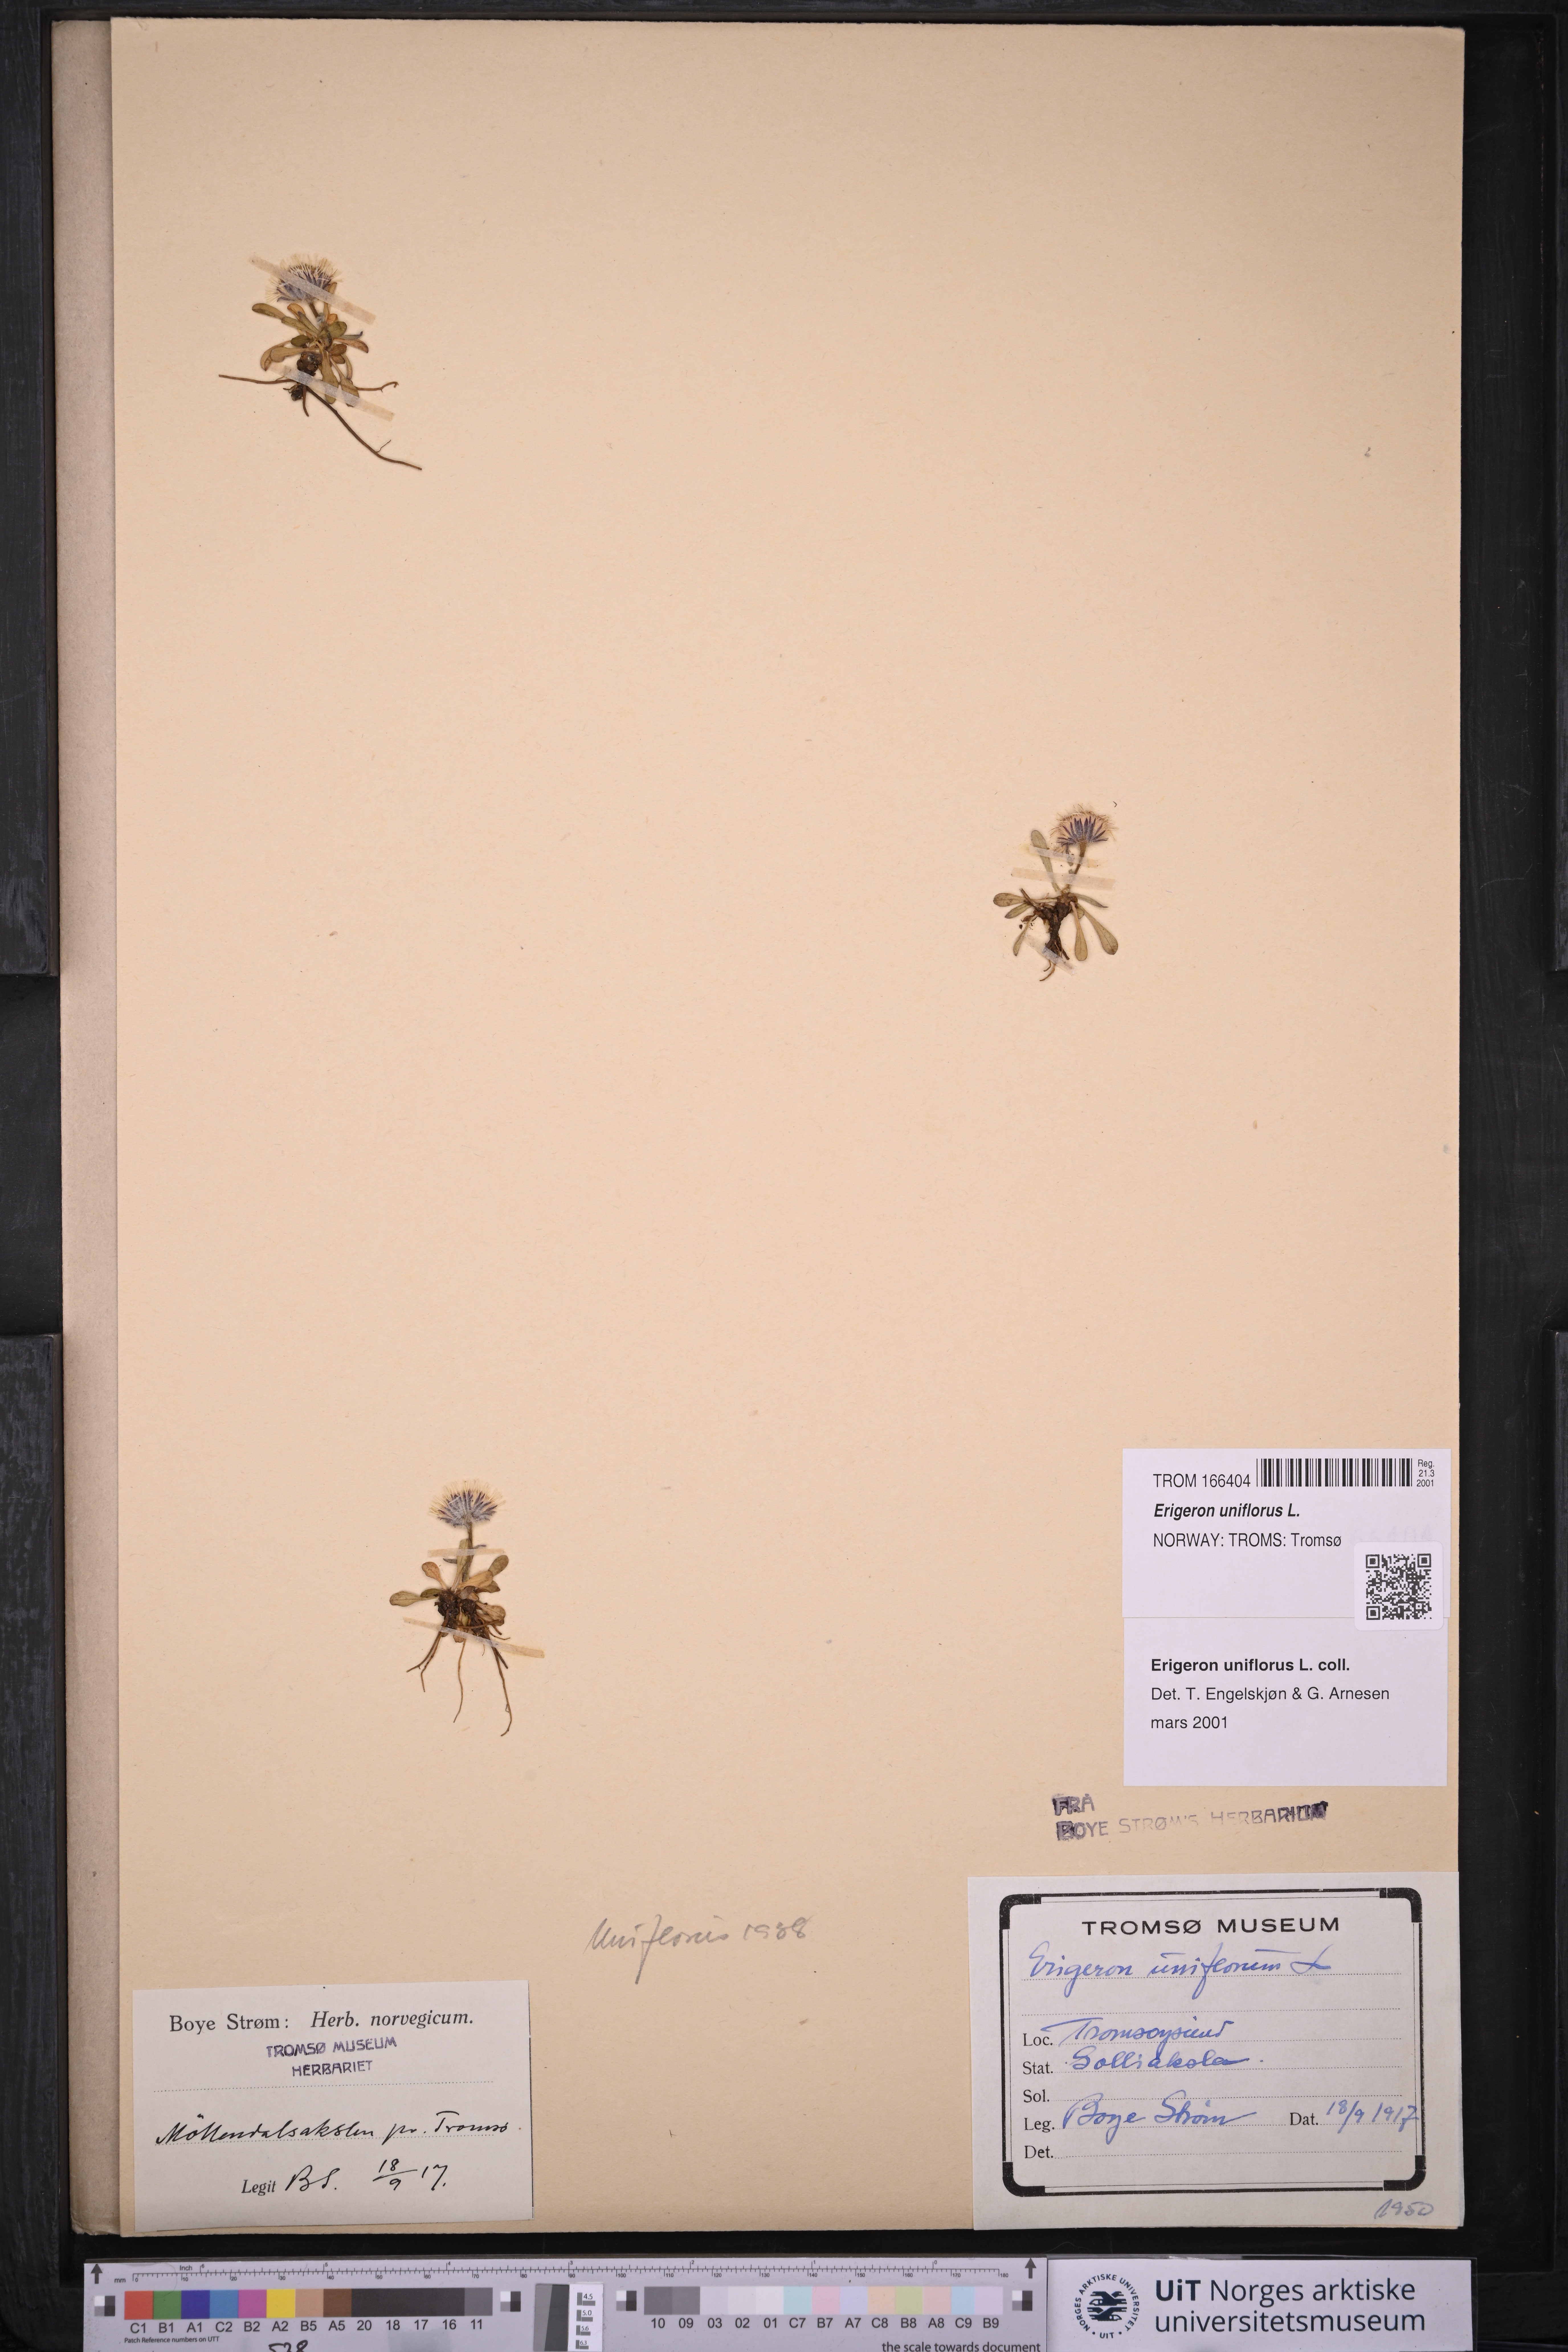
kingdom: Plantae
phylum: Tracheophyta
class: Magnoliopsida
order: Asterales
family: Asteraceae
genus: Erigeron
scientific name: Erigeron uniflorus
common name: Northern daisy
